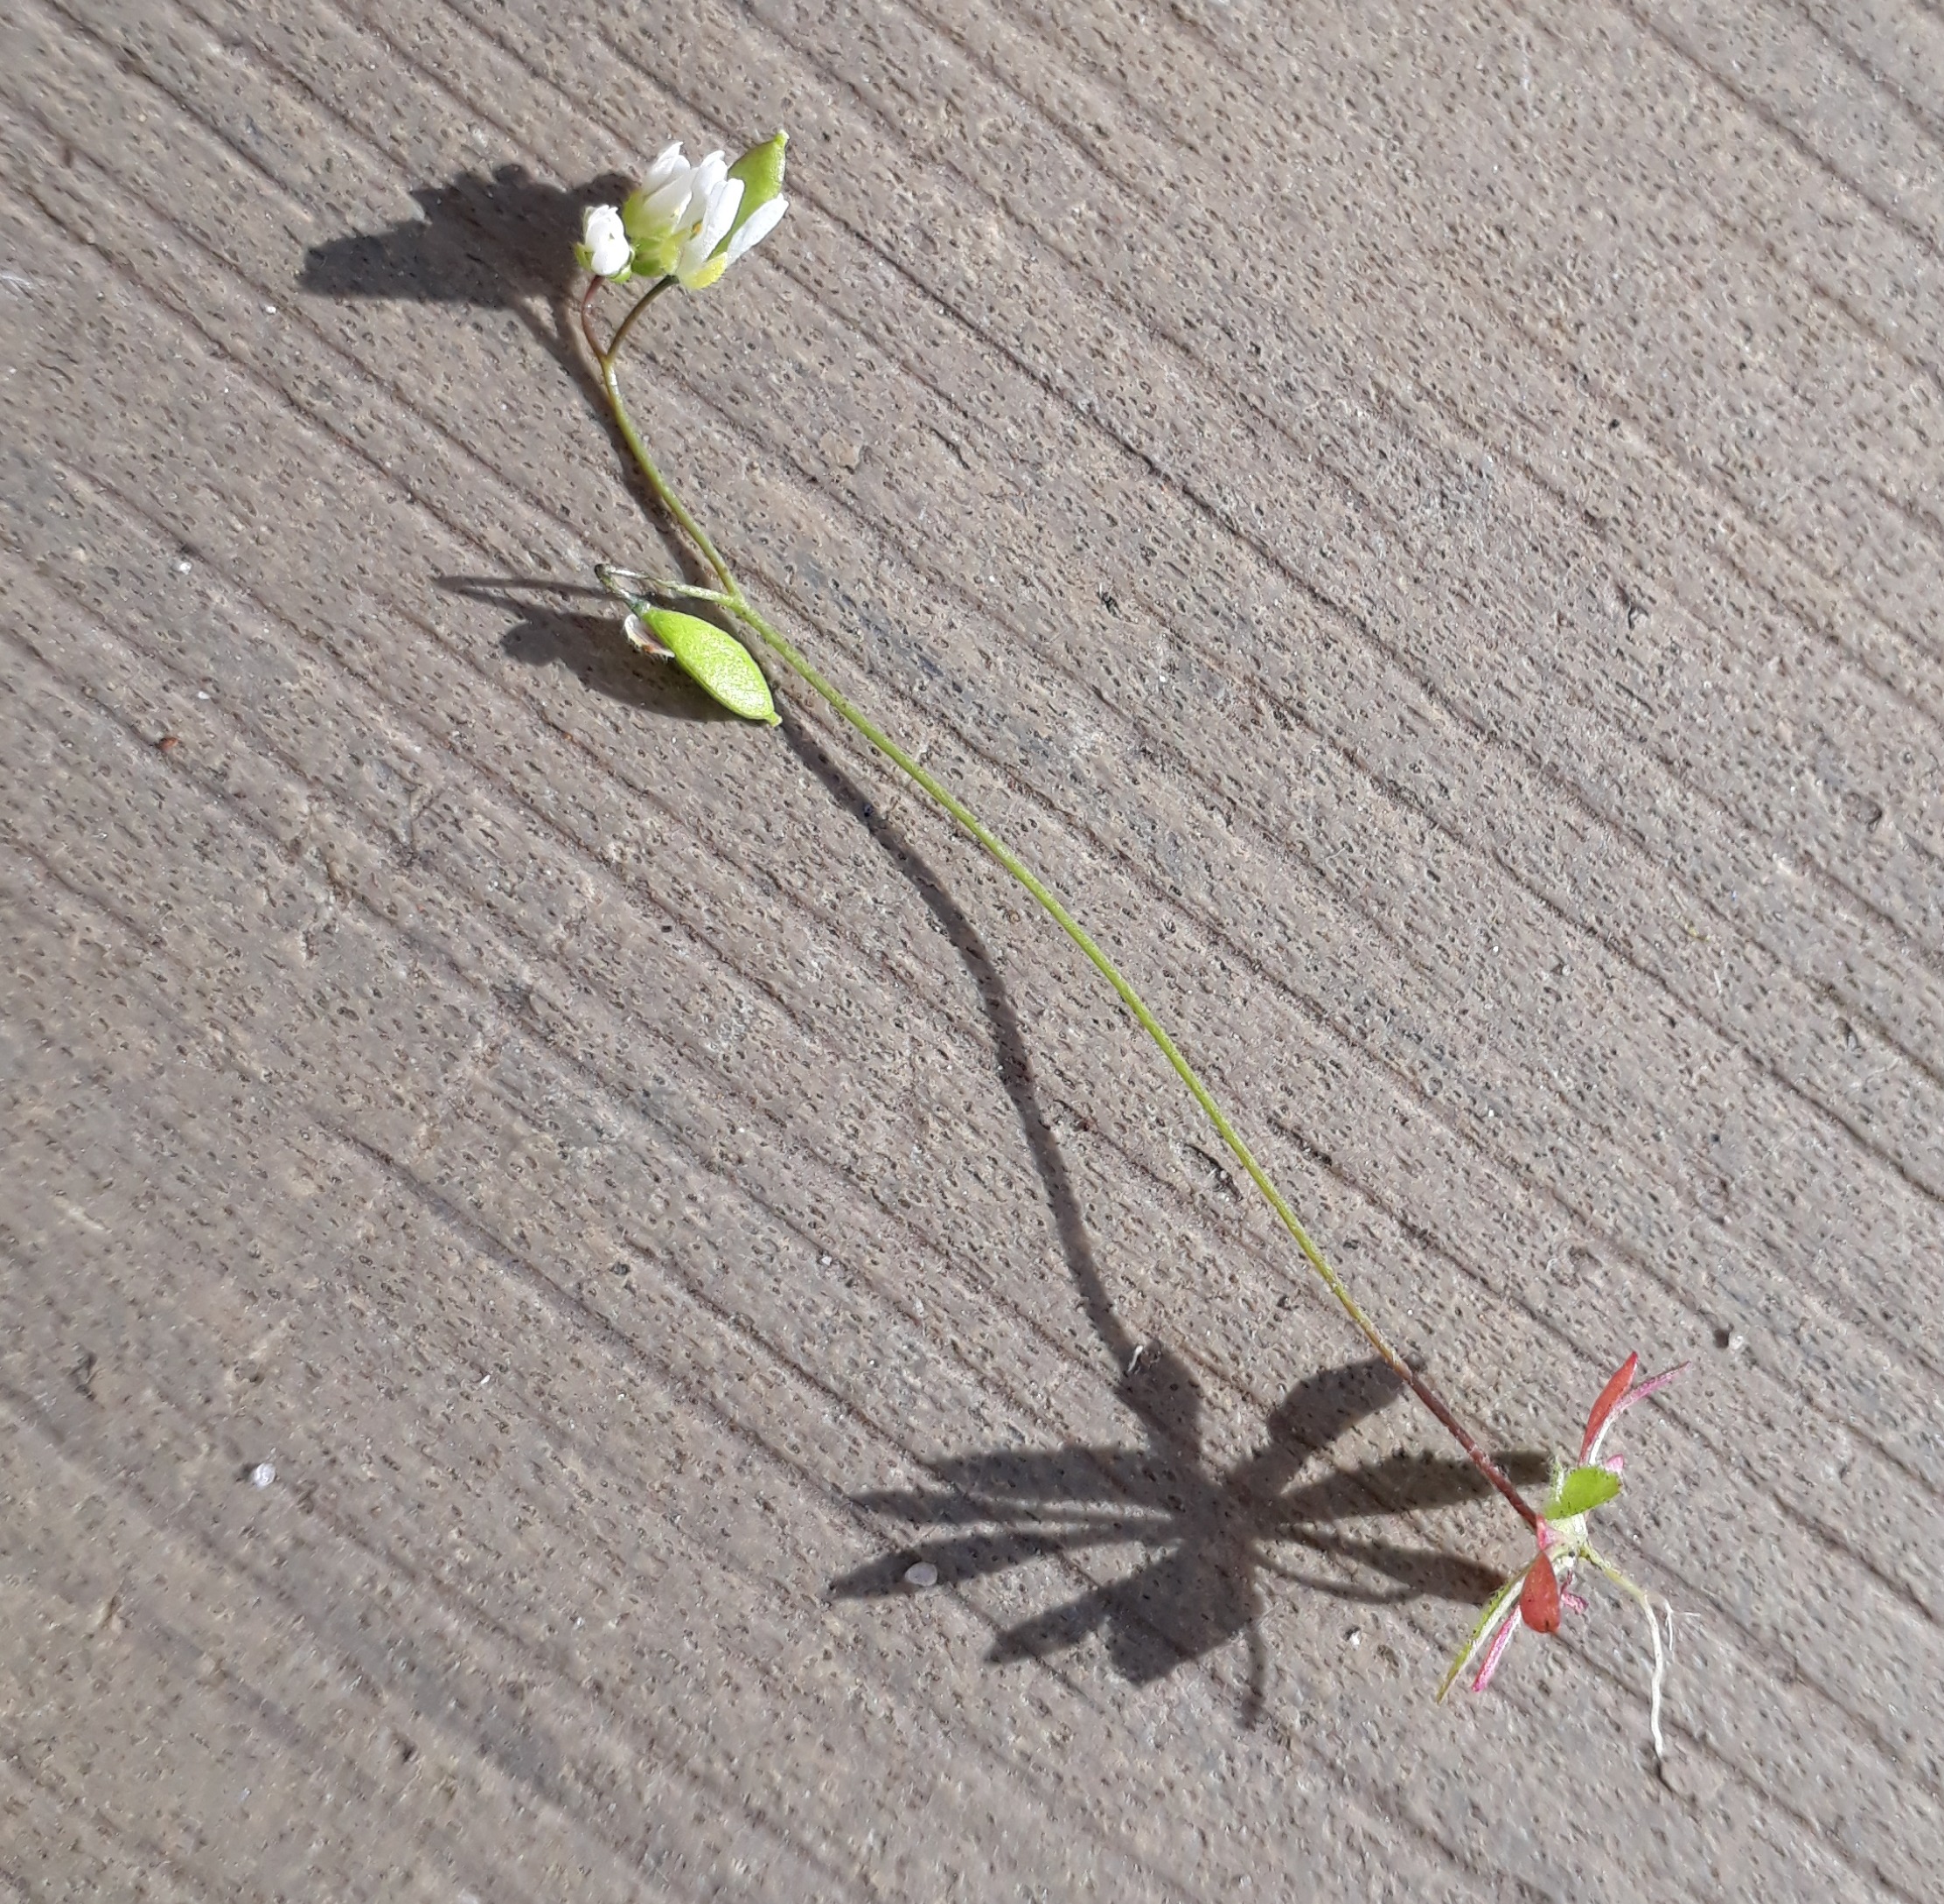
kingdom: Plantae
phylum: Tracheophyta
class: Magnoliopsida
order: Brassicales
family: Brassicaceae
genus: Draba
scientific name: Draba verna
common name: Vår-gæslingeblomst
